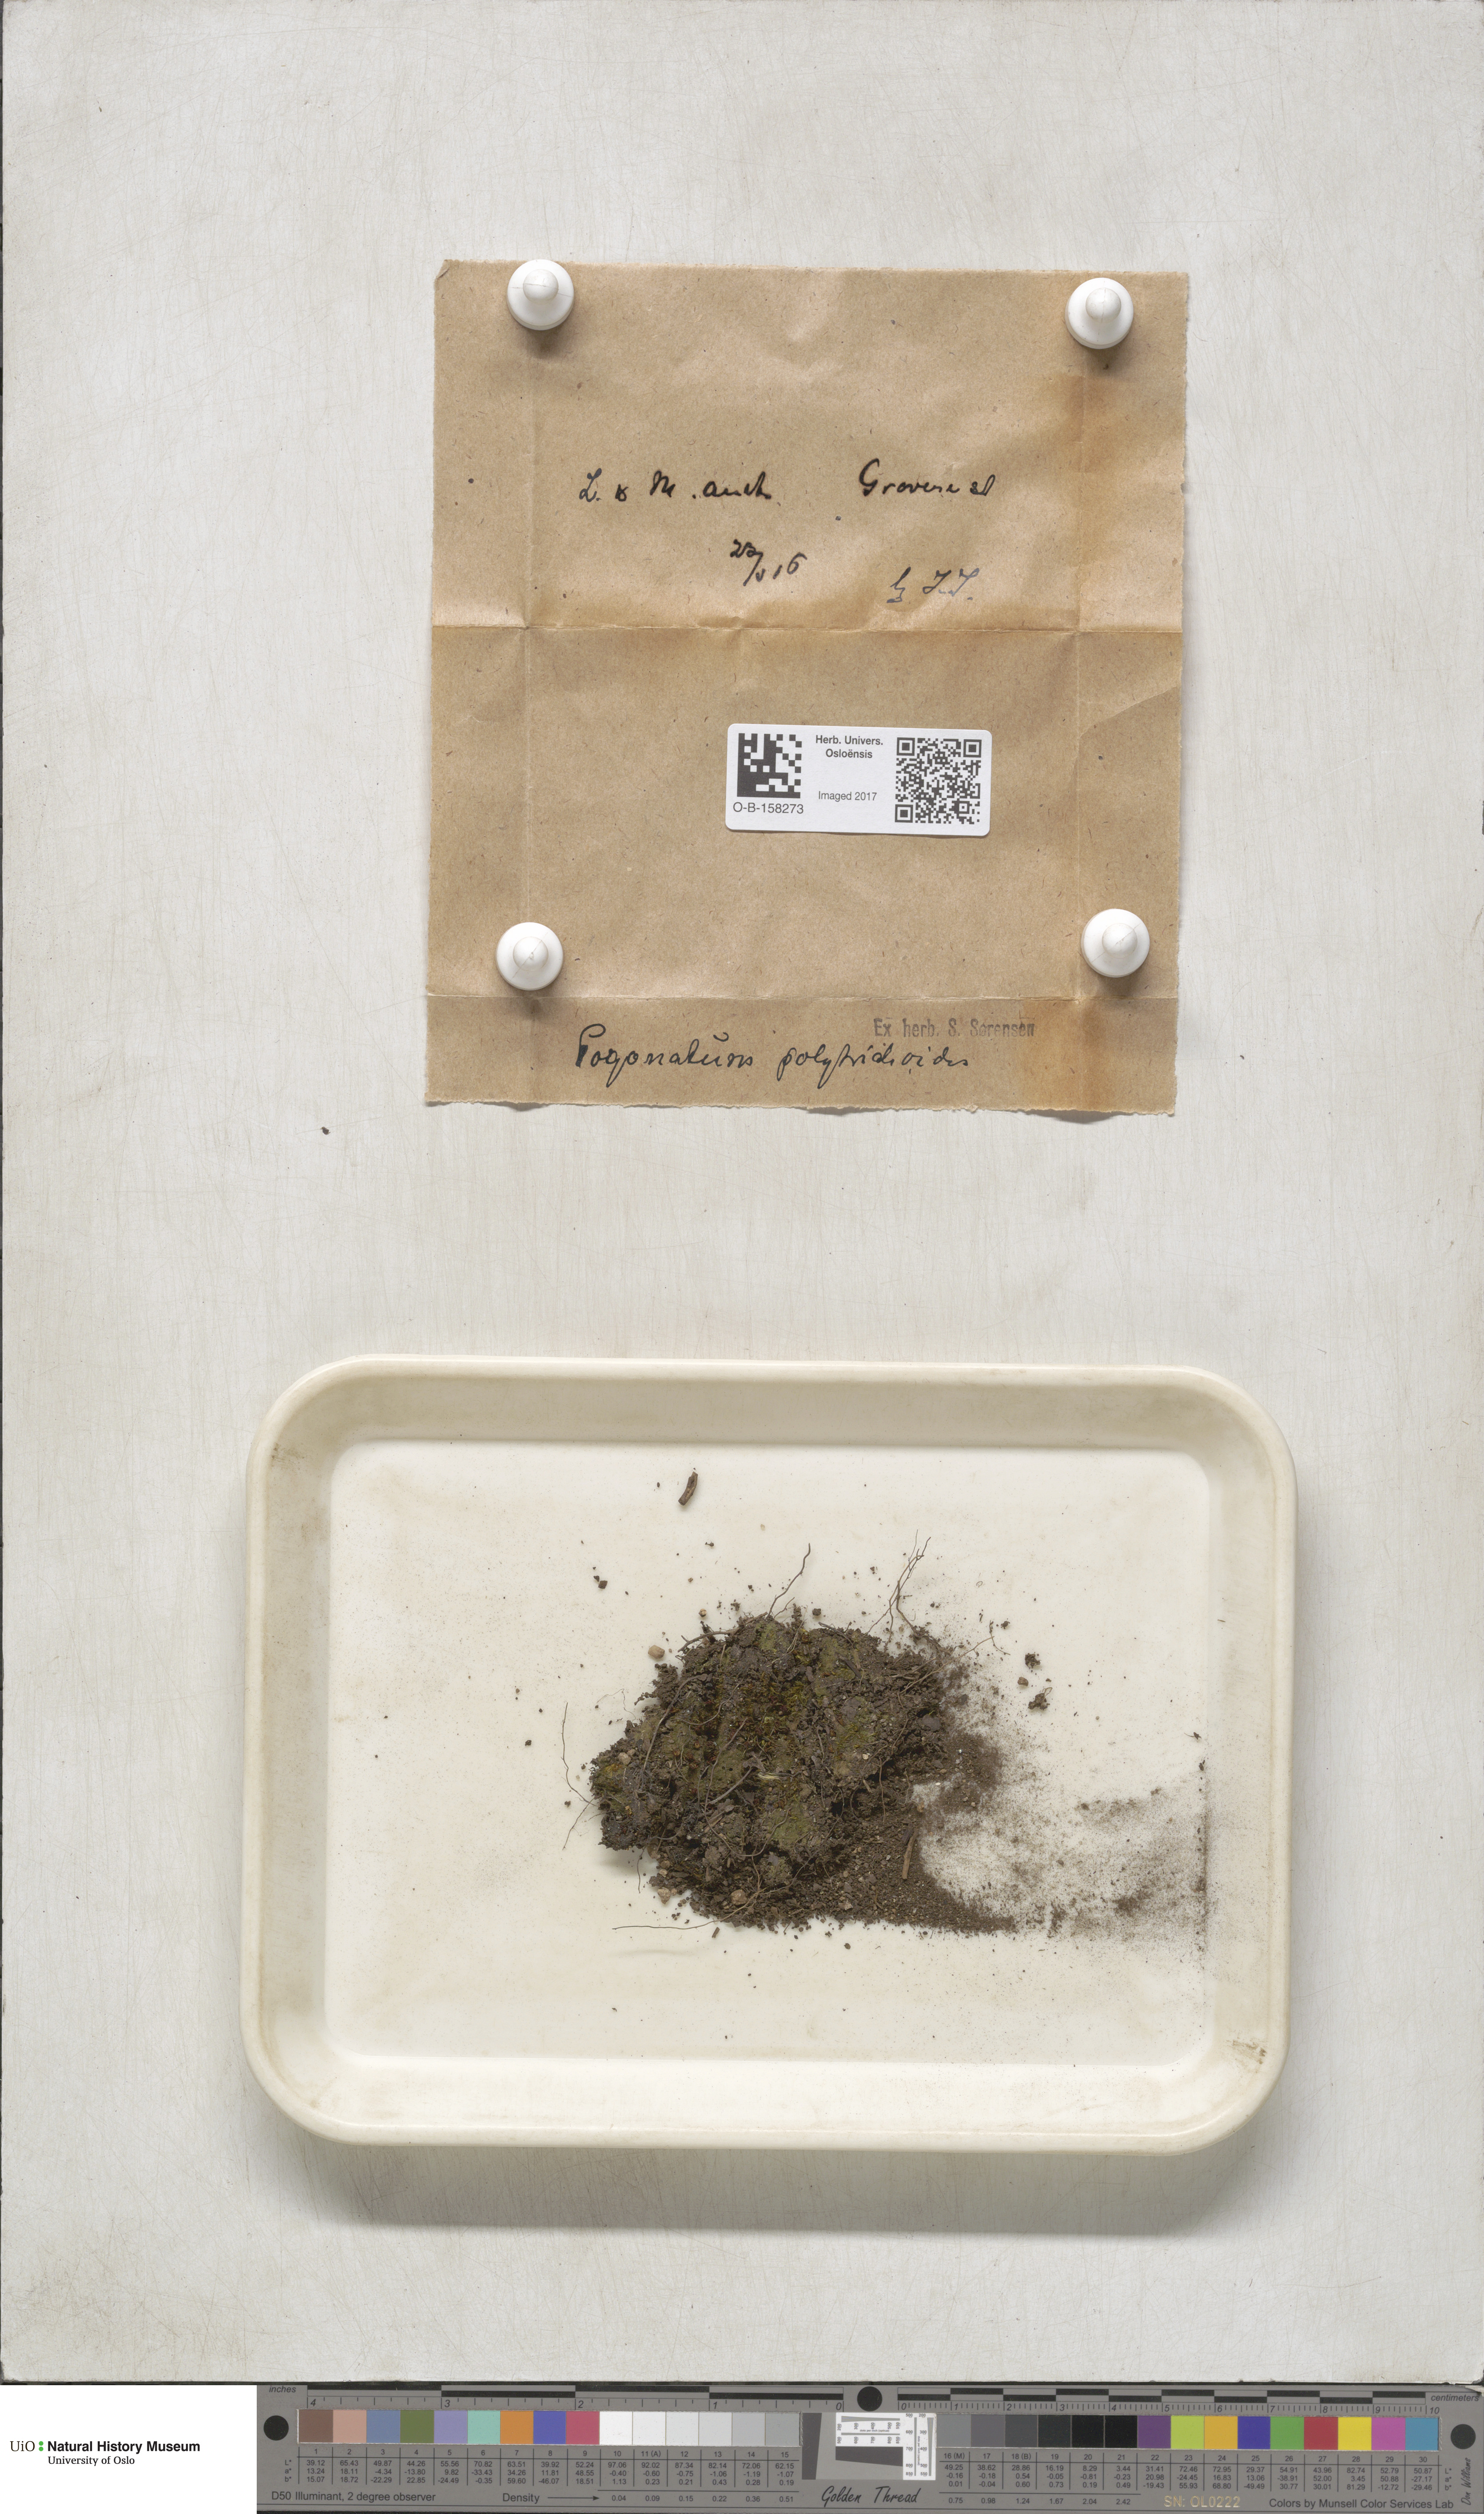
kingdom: Plantae
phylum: Bryophyta
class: Polytrichopsida
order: Polytrichales
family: Polytrichaceae
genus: Pogonatum
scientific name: Pogonatum nanum
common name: Dwarf haircap
